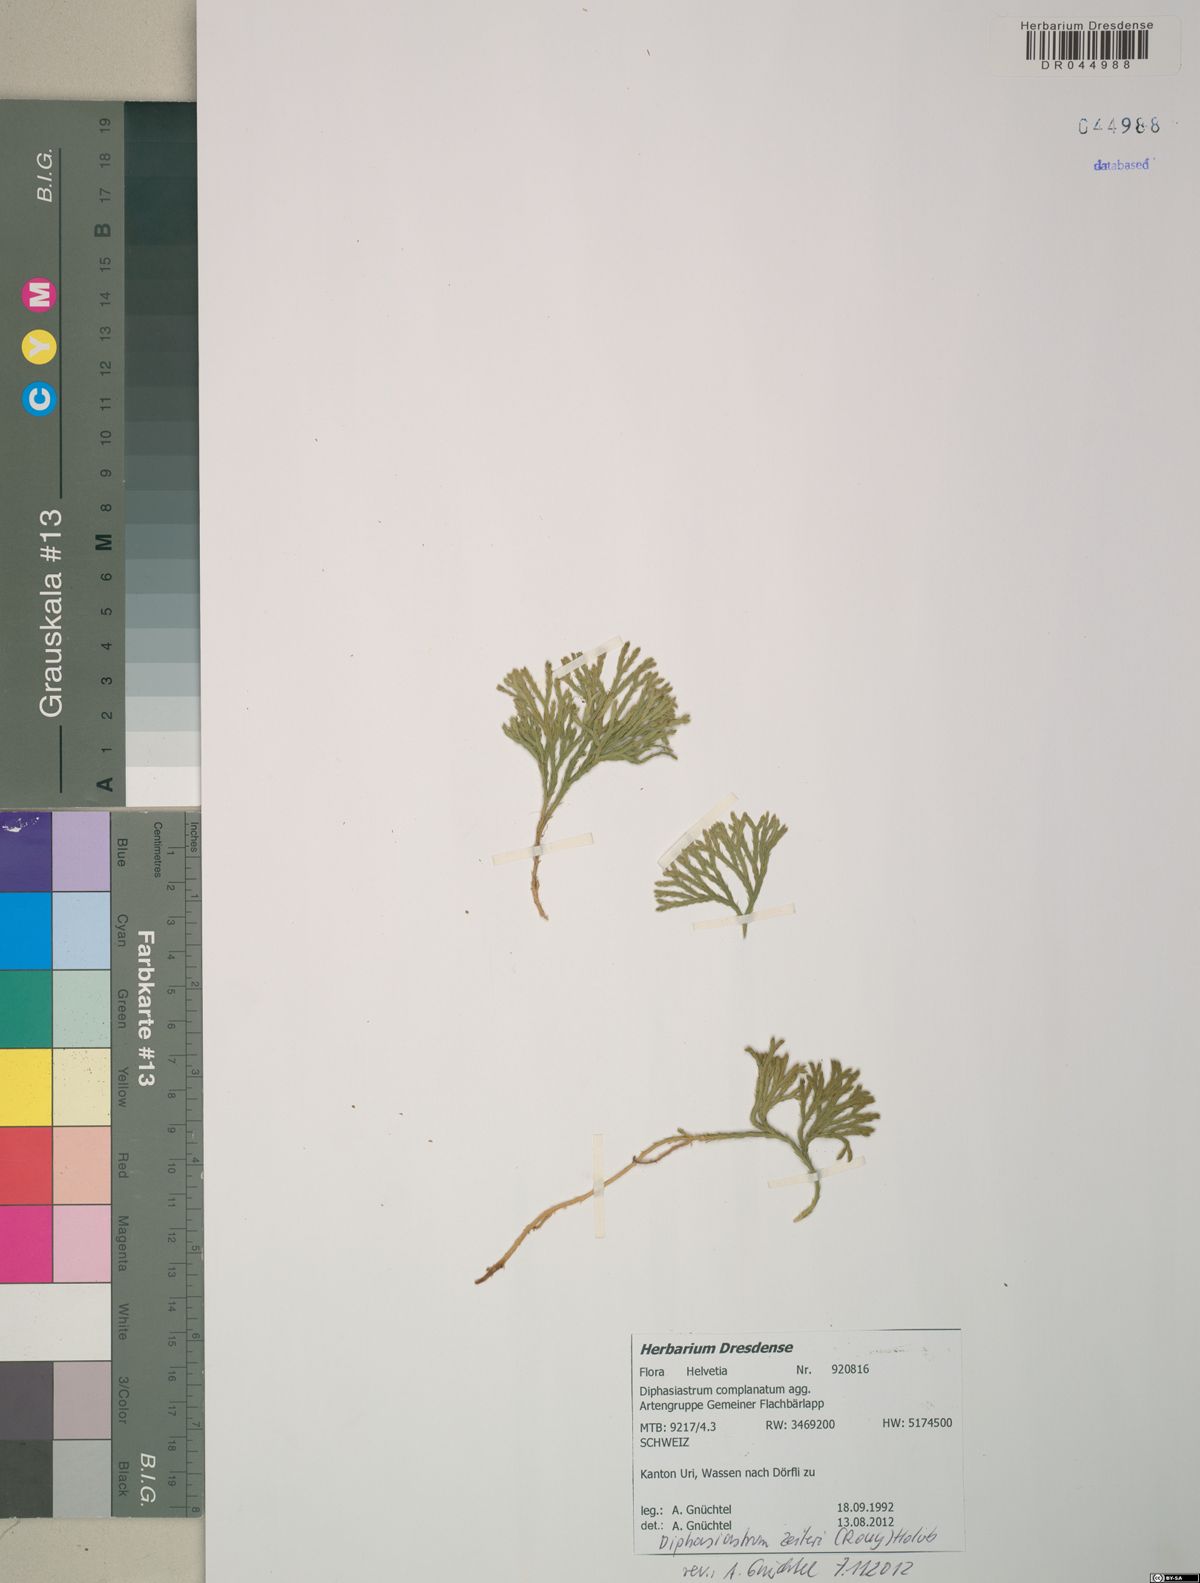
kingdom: Plantae
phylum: Tracheophyta
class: Lycopodiopsida
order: Lycopodiales
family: Lycopodiaceae
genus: Diphasiastrum
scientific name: Diphasiastrum zeilleri
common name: Zeiller's clubmoss
